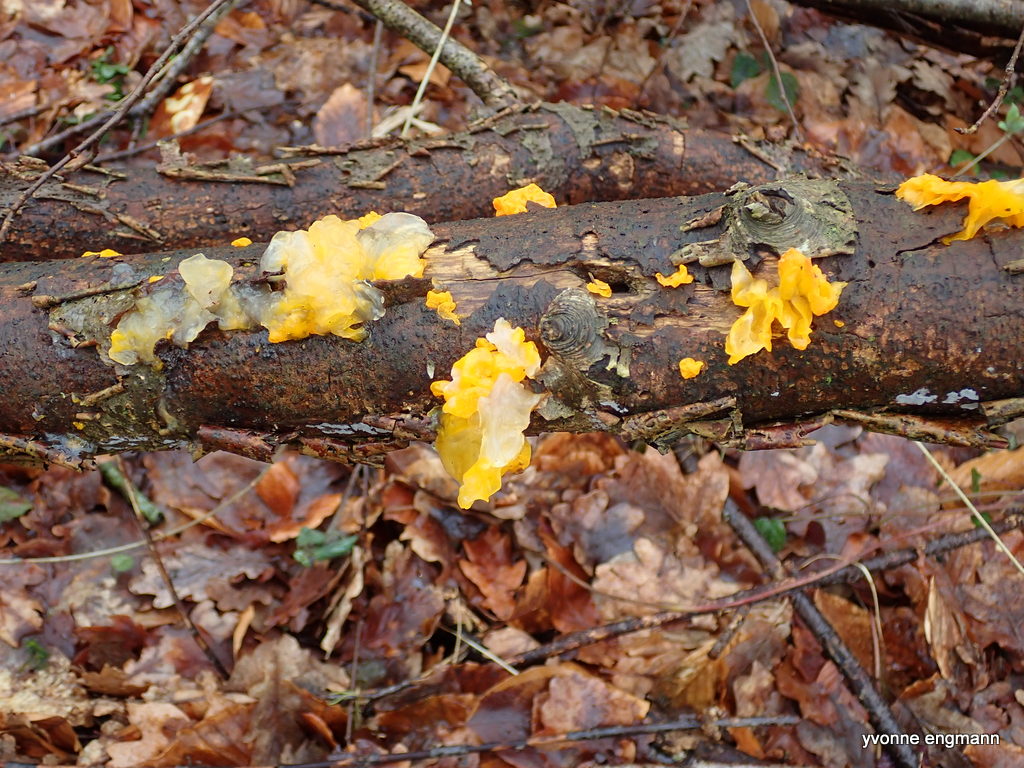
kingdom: Fungi
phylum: Basidiomycota
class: Tremellomycetes
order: Tremellales
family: Tremellaceae
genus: Tremella
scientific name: Tremella mesenterica
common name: gul bævresvamp
